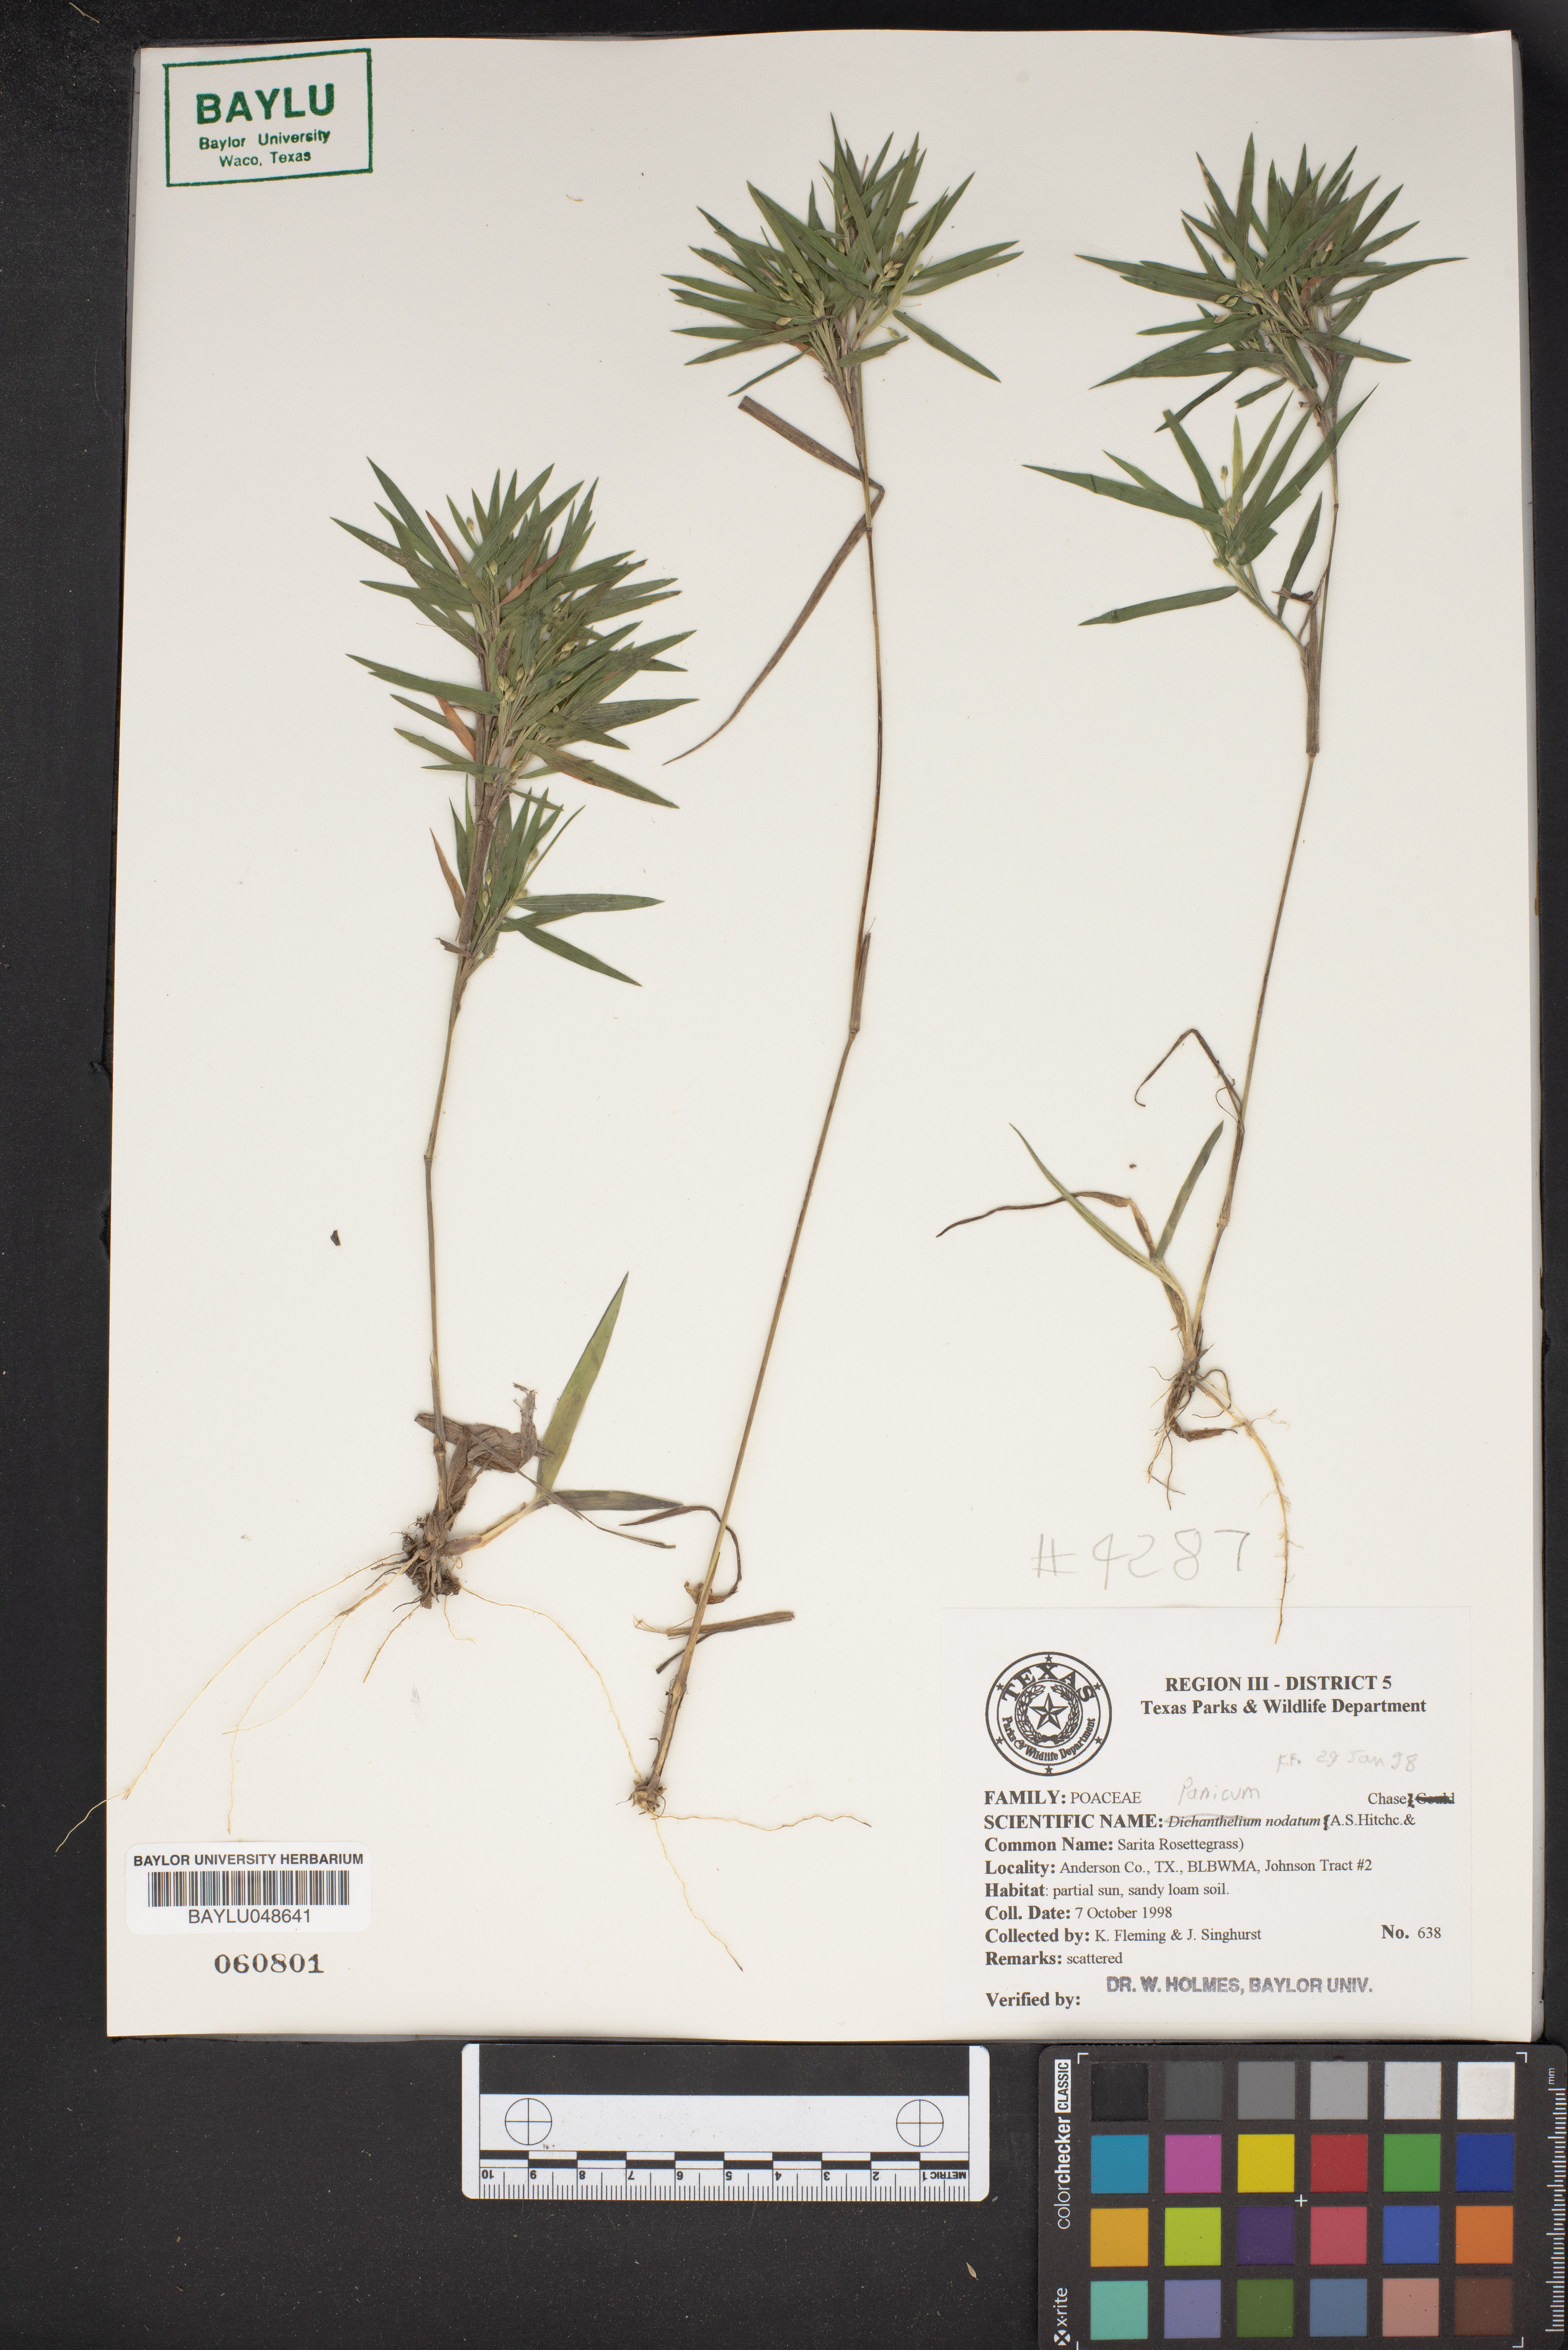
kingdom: Plantae
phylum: Tracheophyta
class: Liliopsida
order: Poales
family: Poaceae
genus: Dichanthelium
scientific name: Dichanthelium nodatum
